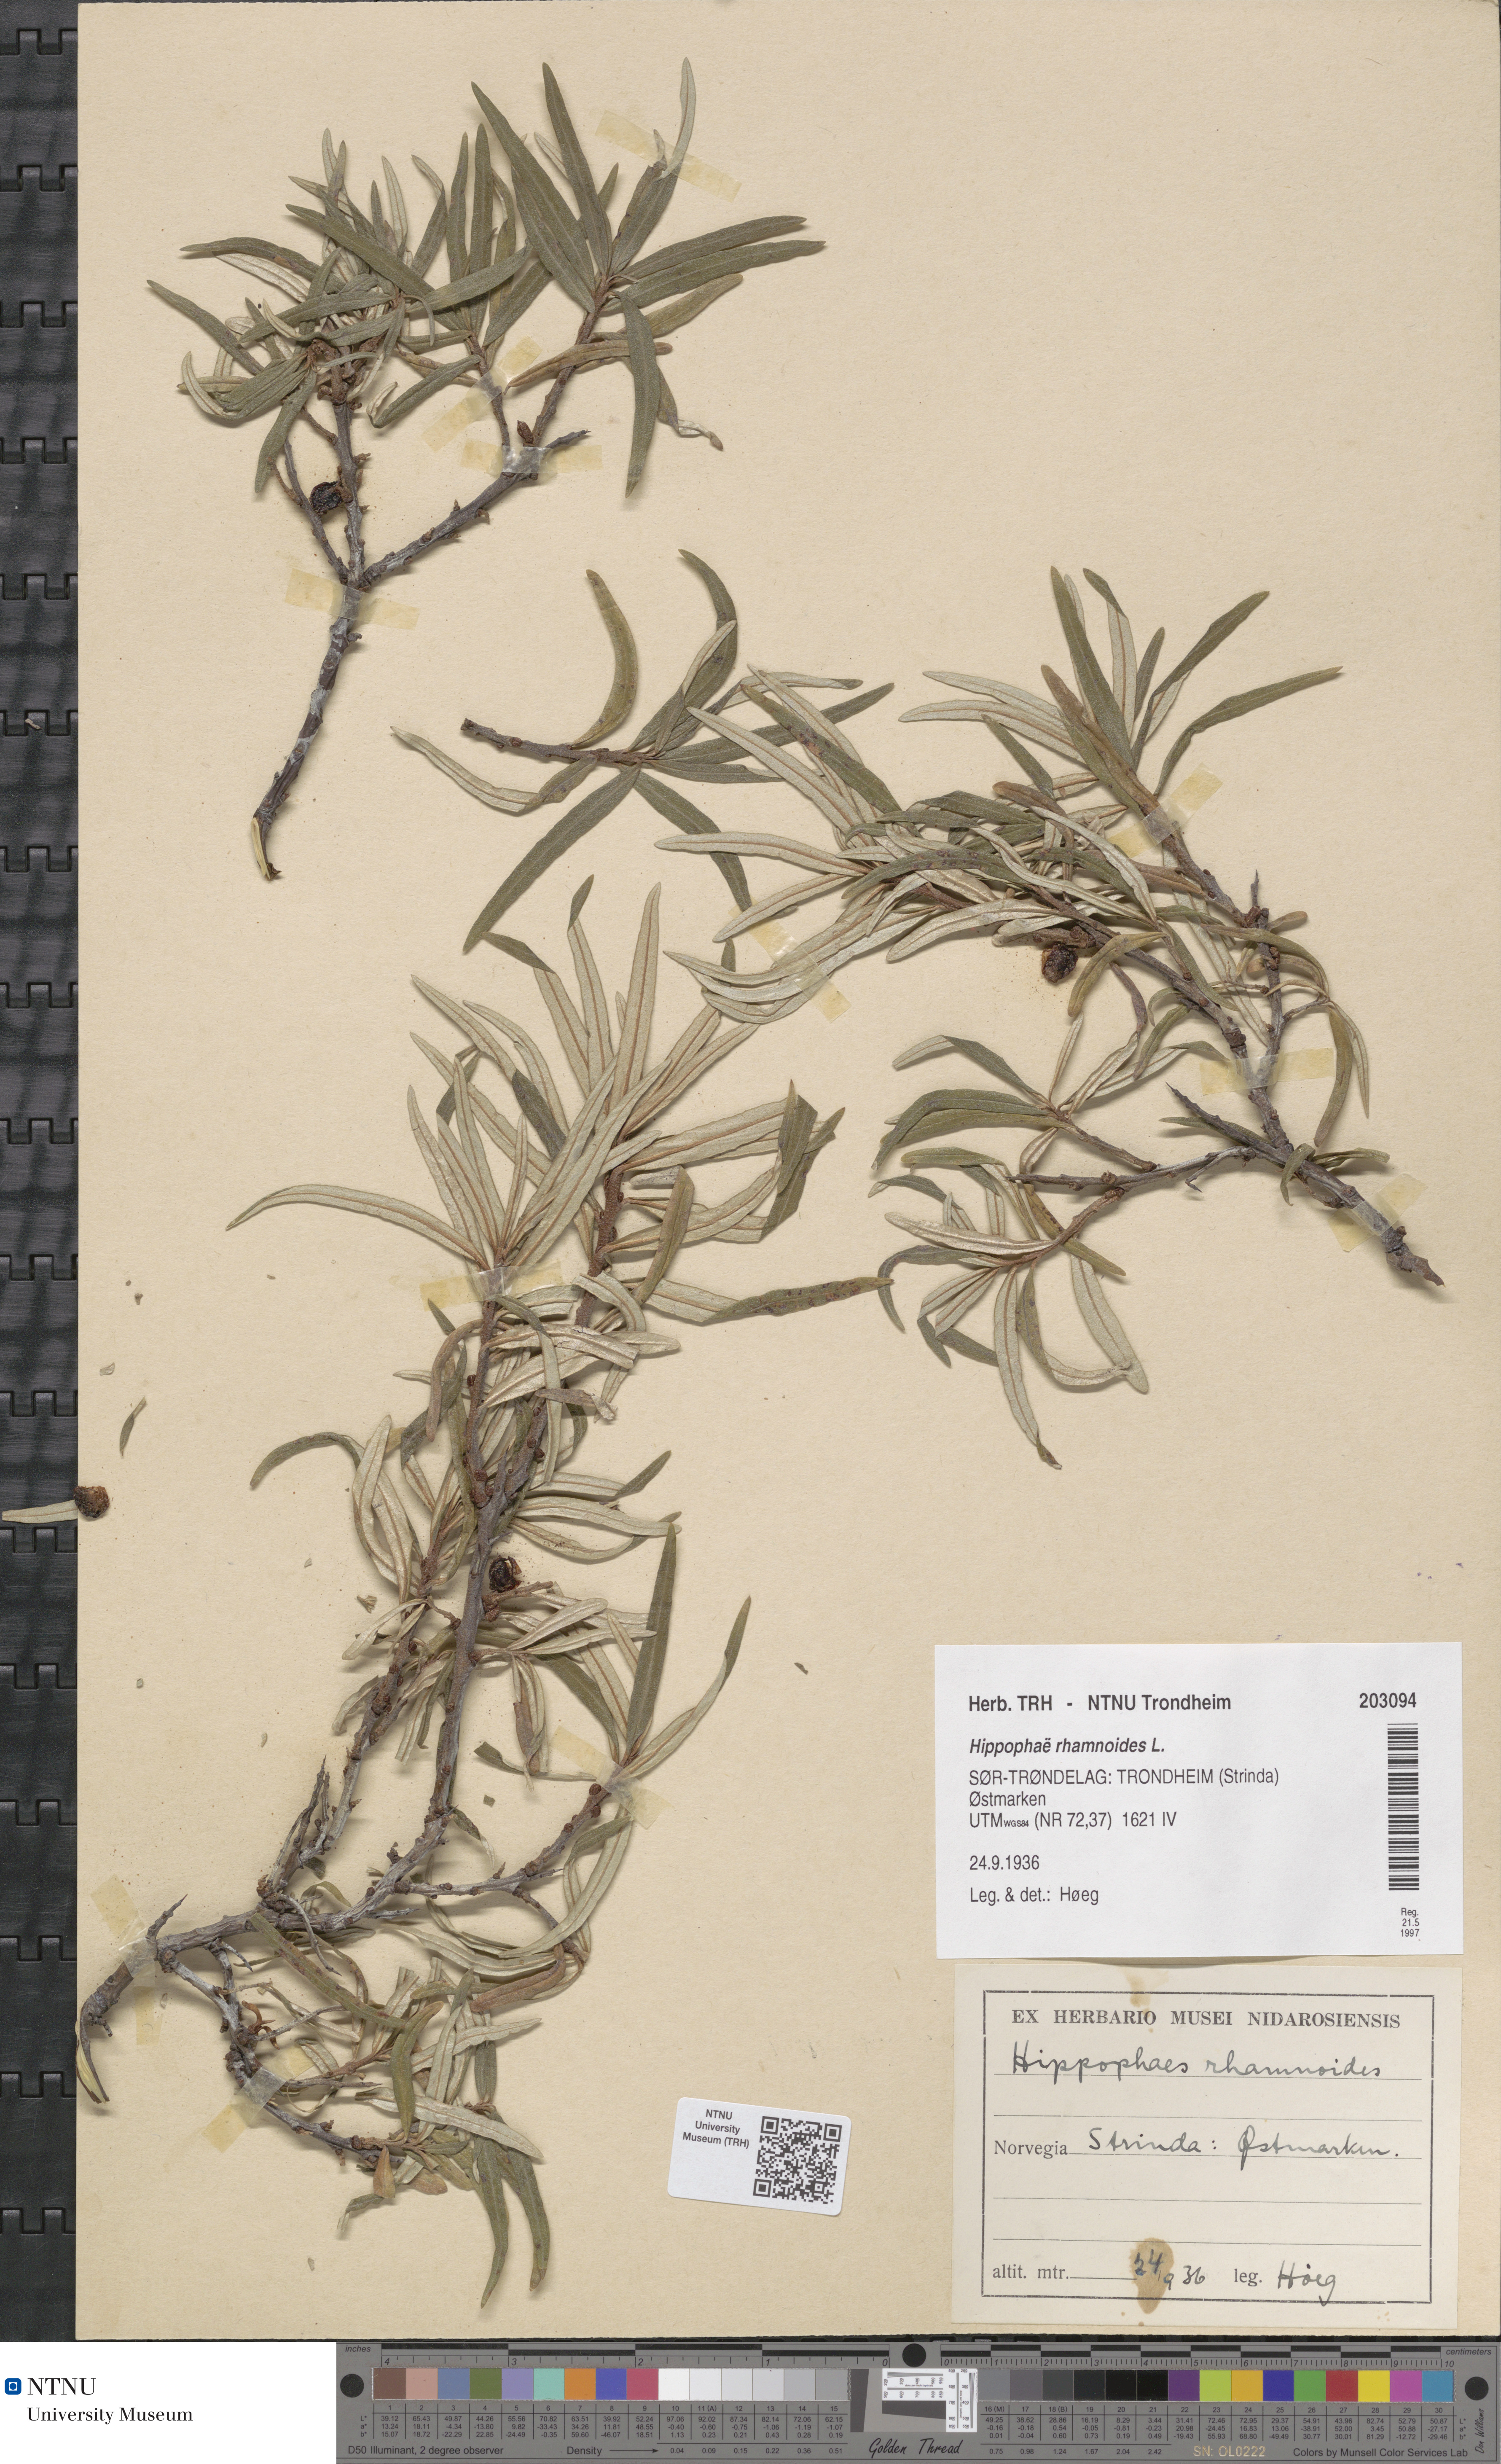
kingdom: Plantae
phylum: Tracheophyta
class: Magnoliopsida
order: Rosales
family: Elaeagnaceae
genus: Hippophae
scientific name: Hippophae rhamnoides
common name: Sea-buckthorn
